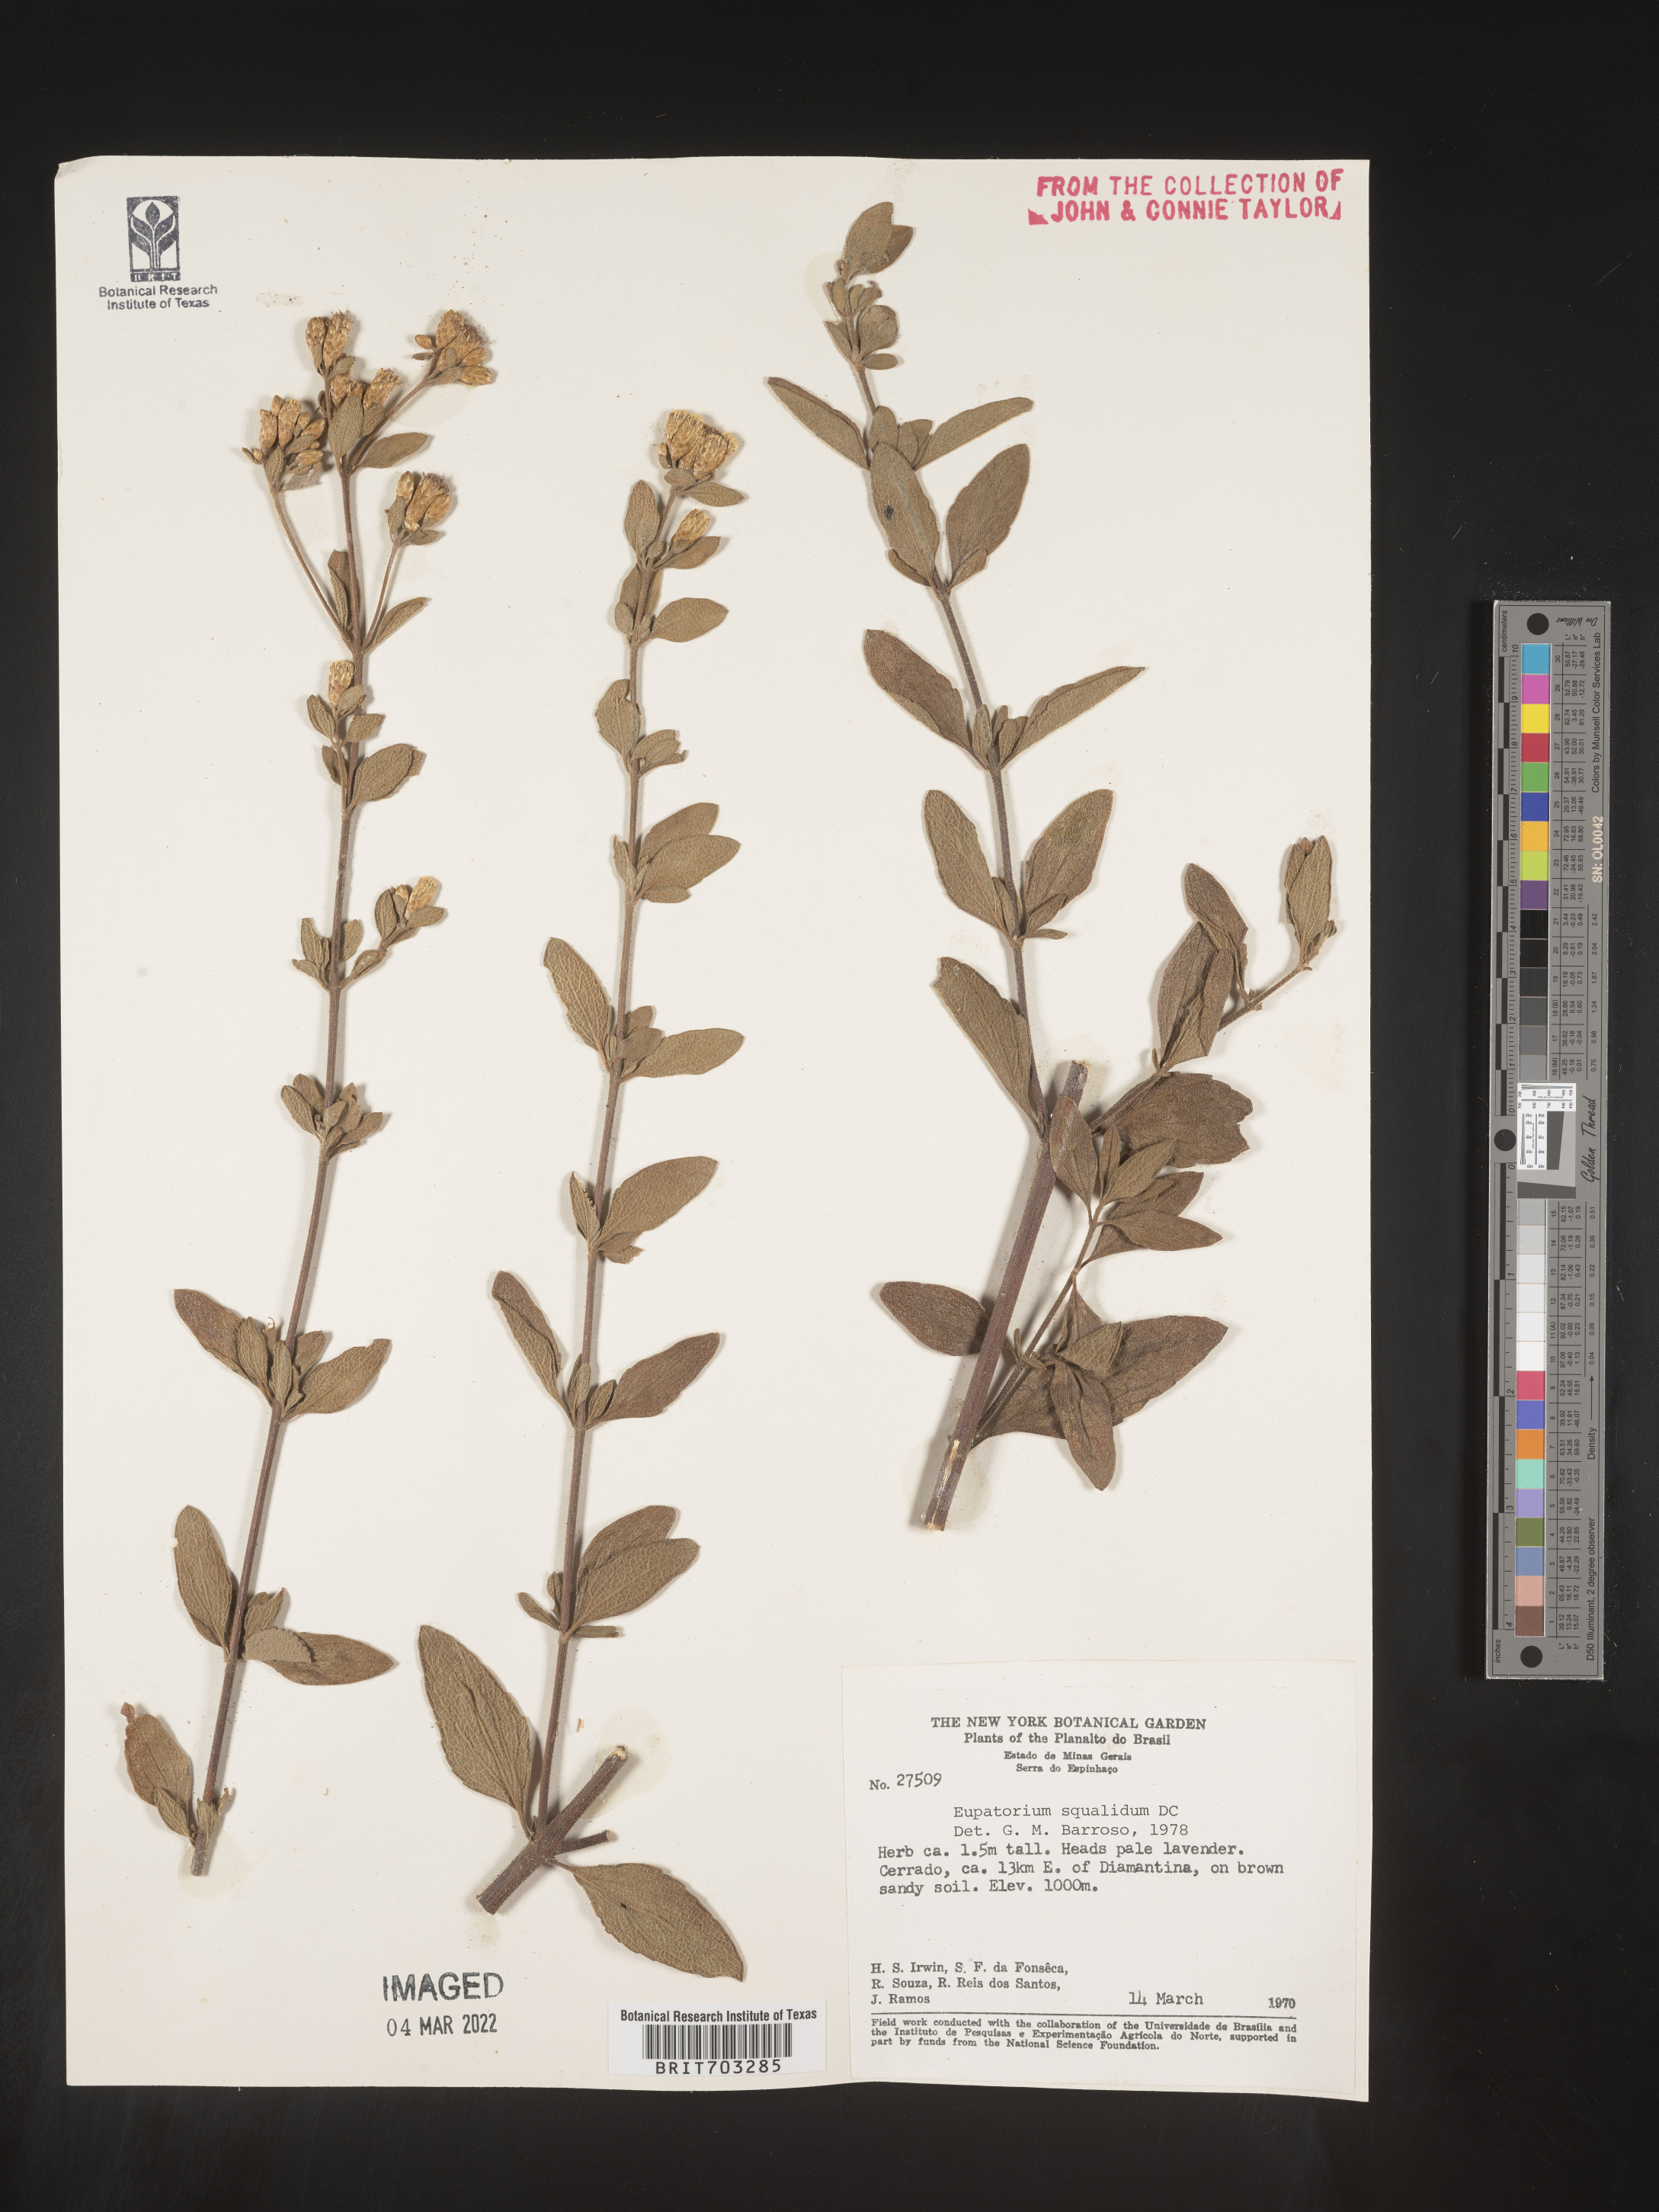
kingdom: Plantae
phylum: Tracheophyta
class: Magnoliopsida
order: Asterales
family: Asteraceae
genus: Eupatorium
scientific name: Eupatorium
